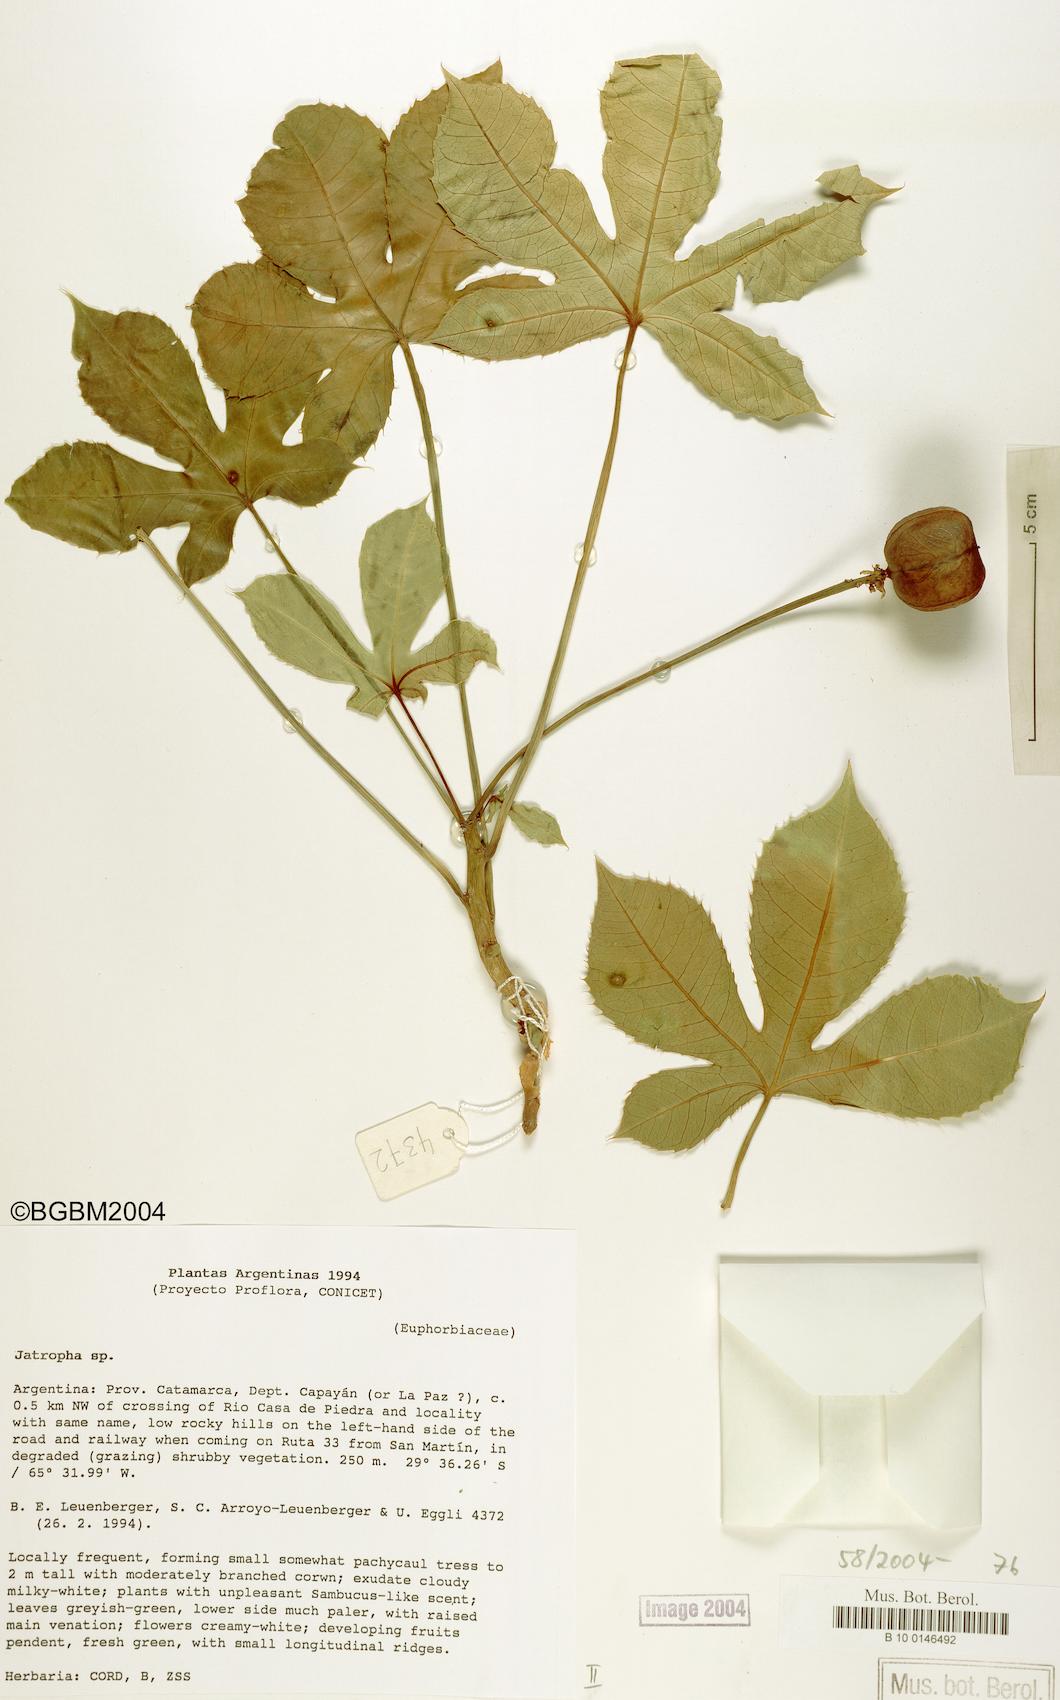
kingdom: Plantae
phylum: Tracheophyta
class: Magnoliopsida
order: Malpighiales
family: Euphorbiaceae
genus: Jatropha
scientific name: Jatropha hieronymi
